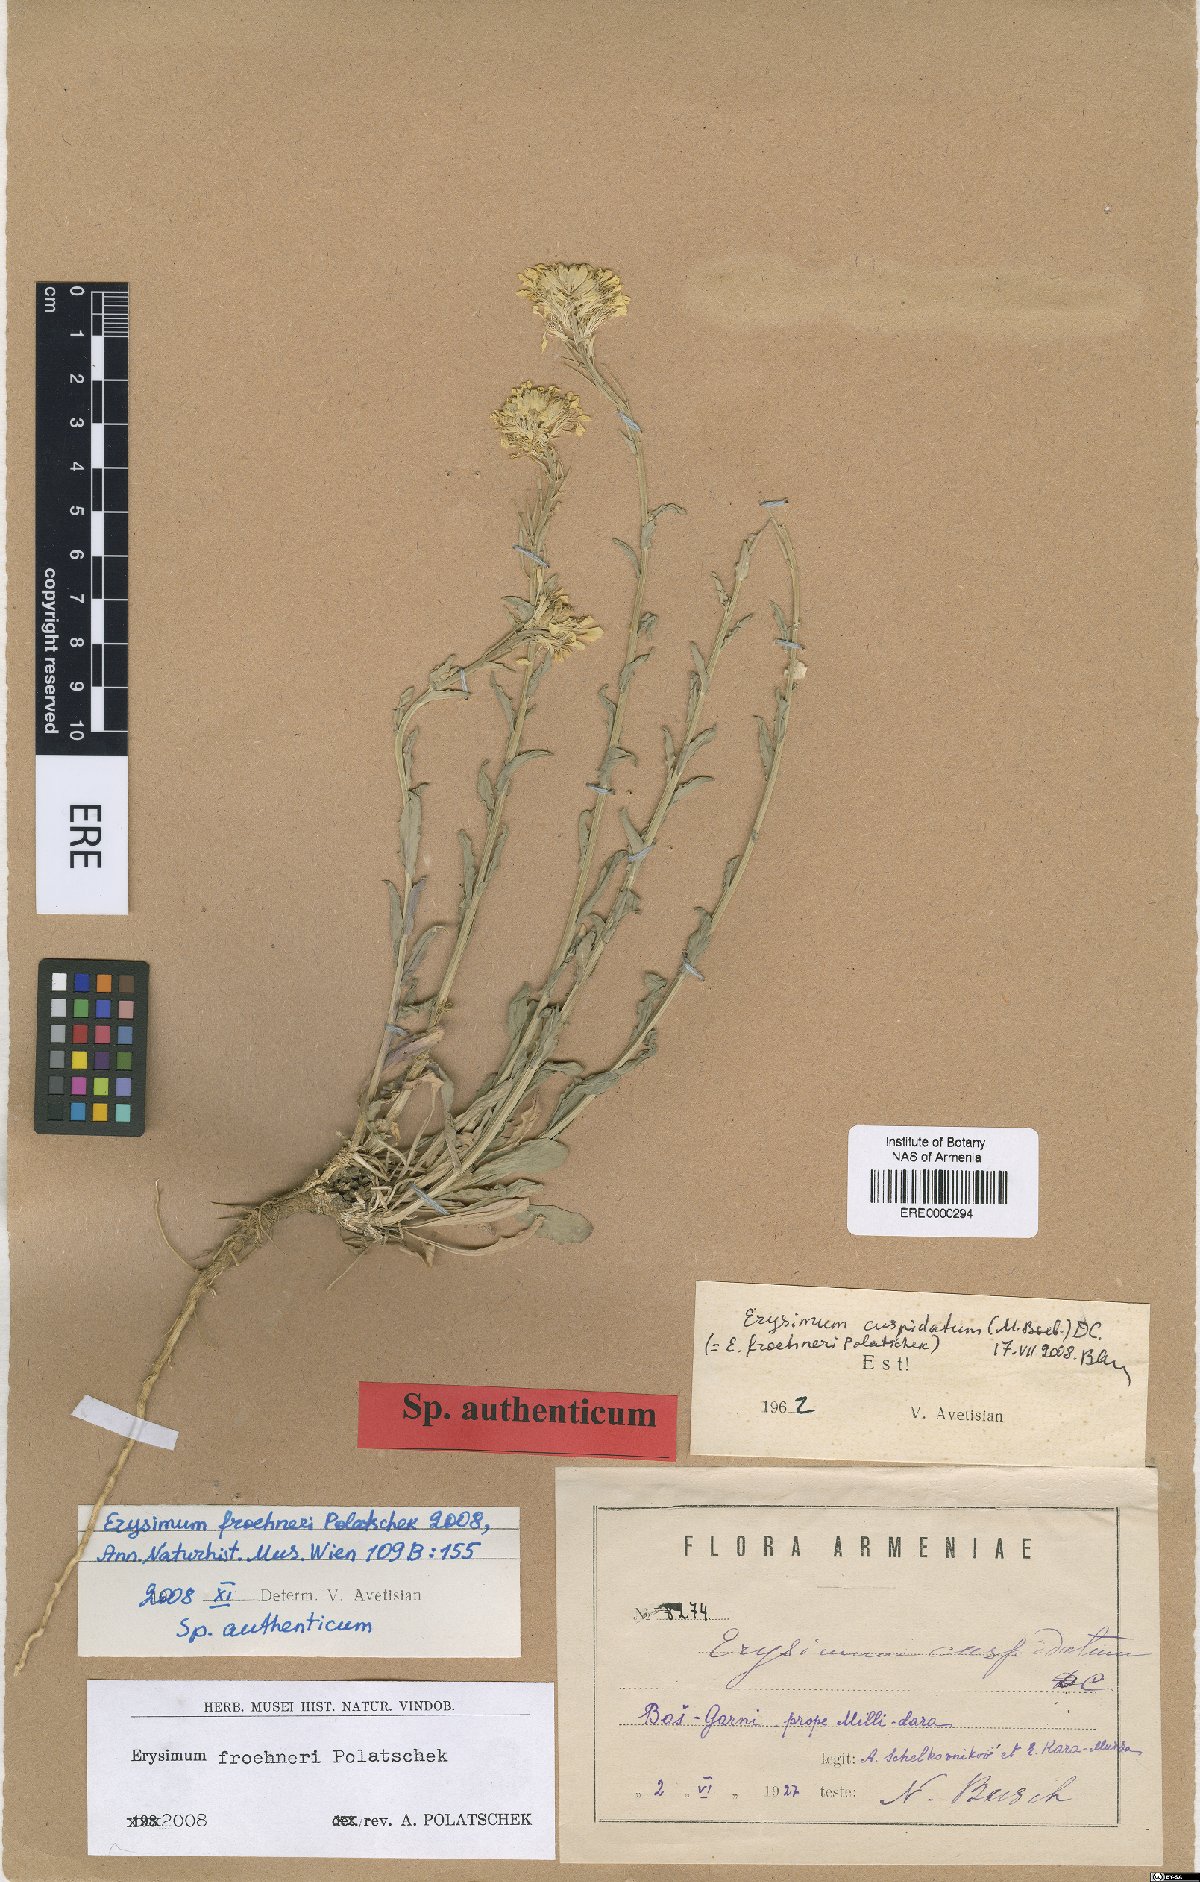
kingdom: Plantae
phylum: Tracheophyta
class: Magnoliopsida
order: Brassicales
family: Brassicaceae
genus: Erysimum
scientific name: Erysimum froehneri
